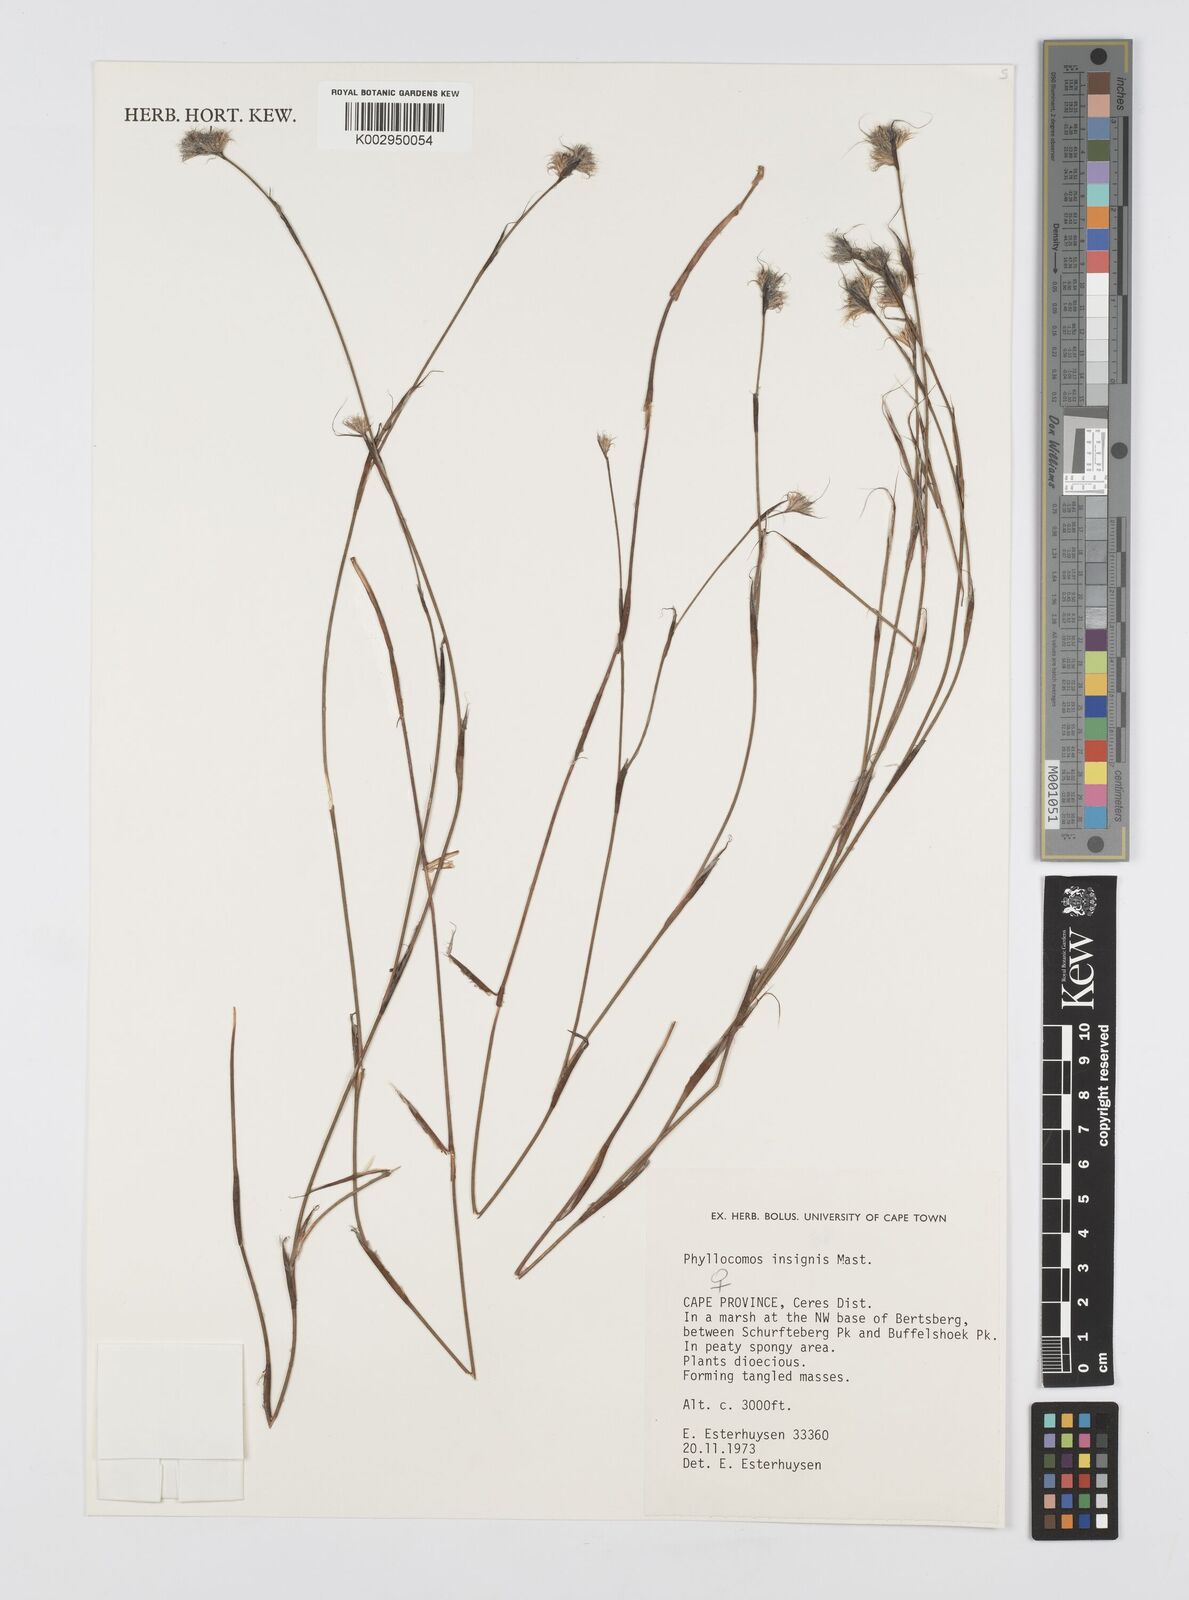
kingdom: Plantae
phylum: Tracheophyta
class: Liliopsida
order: Poales
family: Restionaceae
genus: Anthochortus
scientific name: Anthochortus insignis
